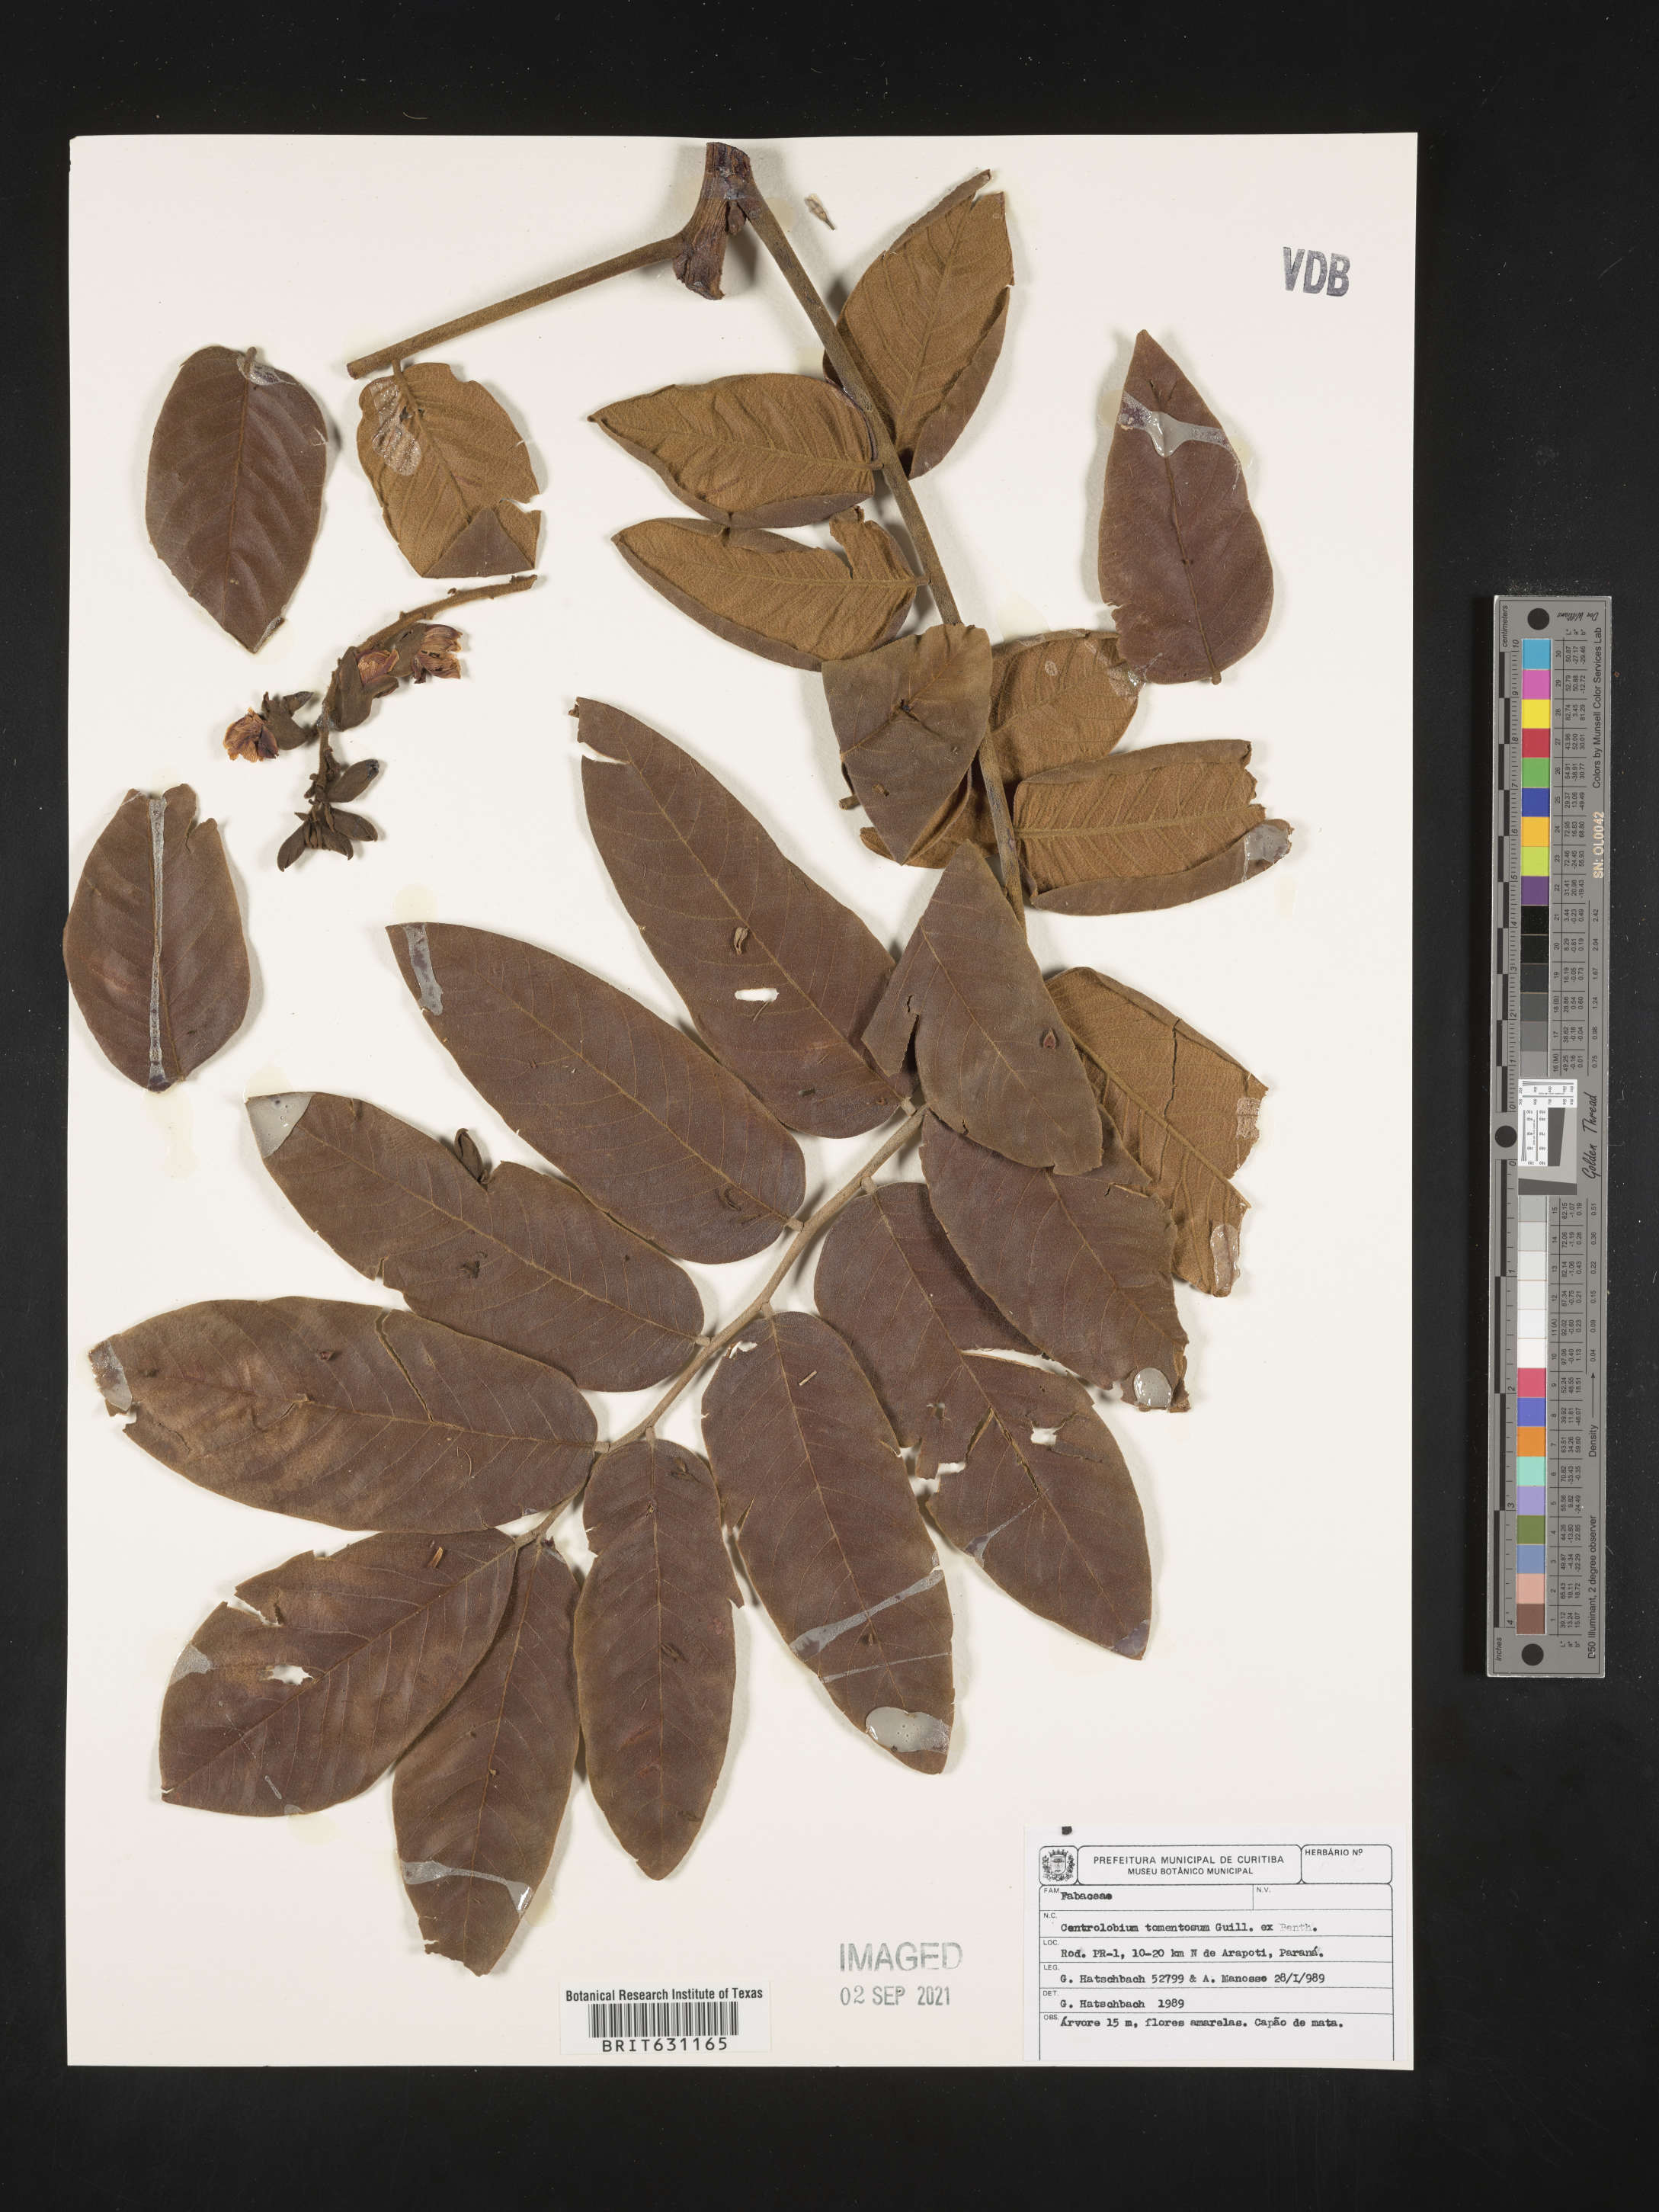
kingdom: Plantae
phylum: Tracheophyta
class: Magnoliopsida
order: Fabales
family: Fabaceae
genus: Centrolobium
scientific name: Centrolobium tomentosum
